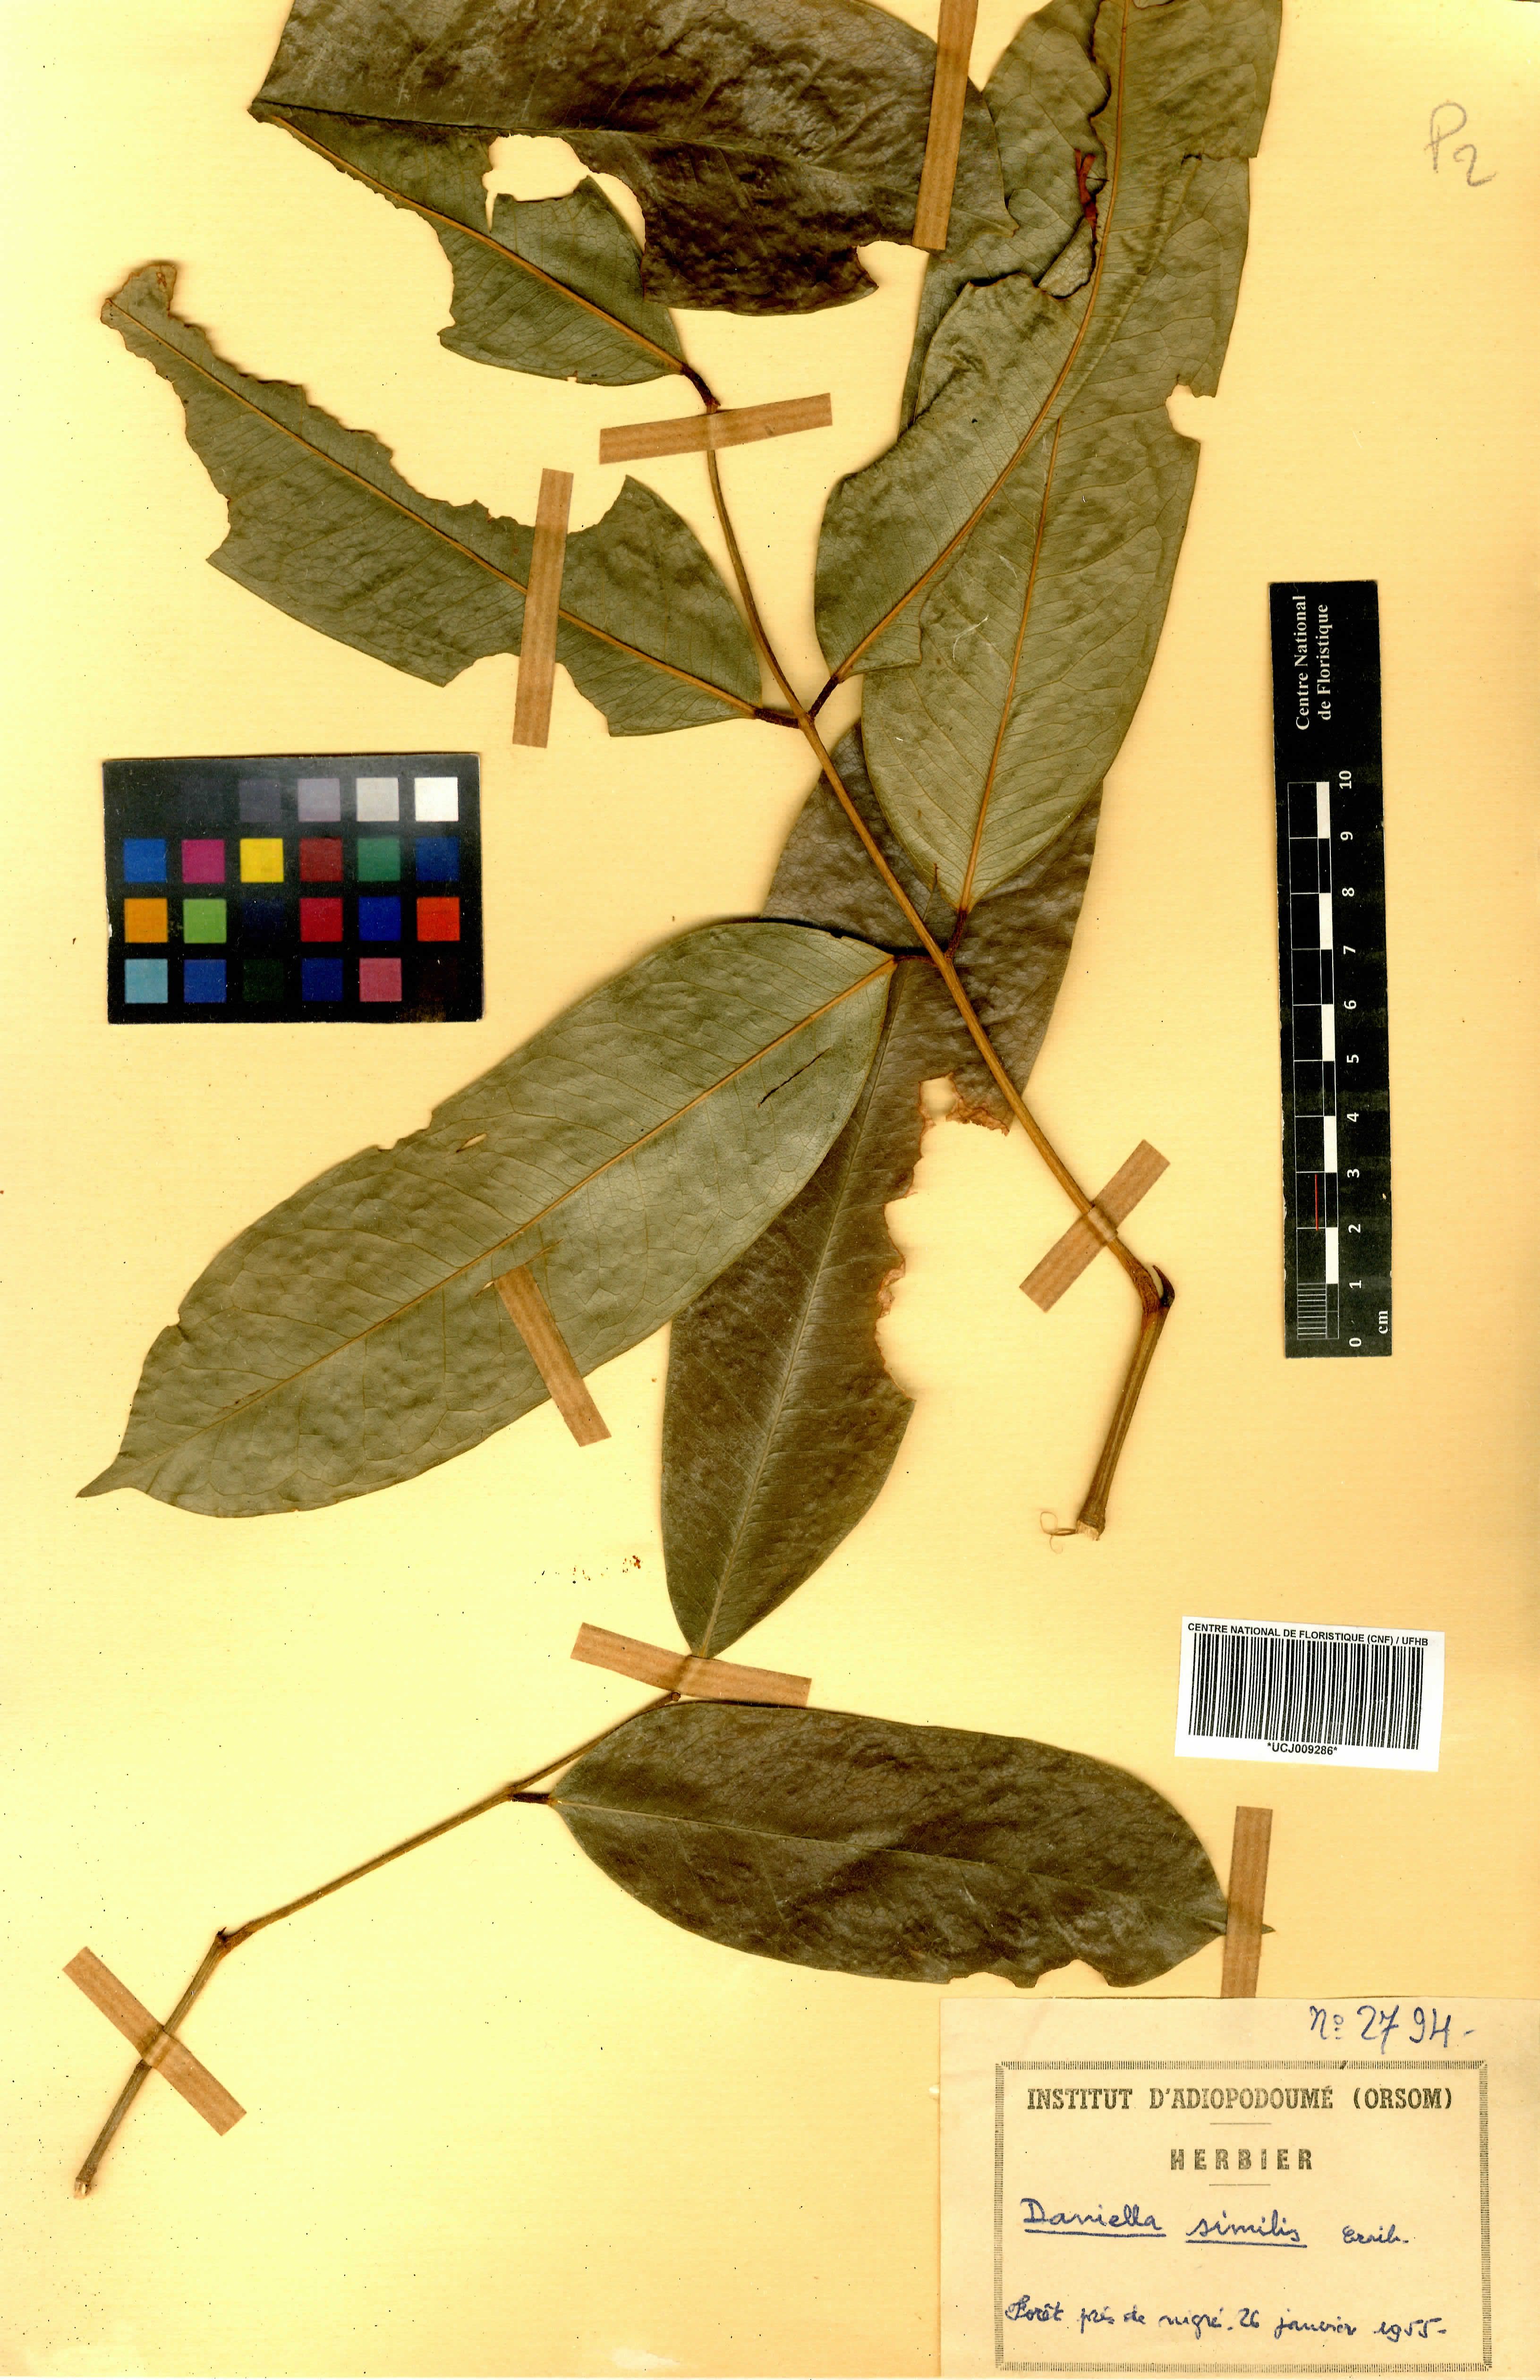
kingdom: Plantae
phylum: Tracheophyta
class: Magnoliopsida
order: Fabales
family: Fabaceae
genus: Daniellia
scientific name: Daniellia ogea
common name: Accra copal
